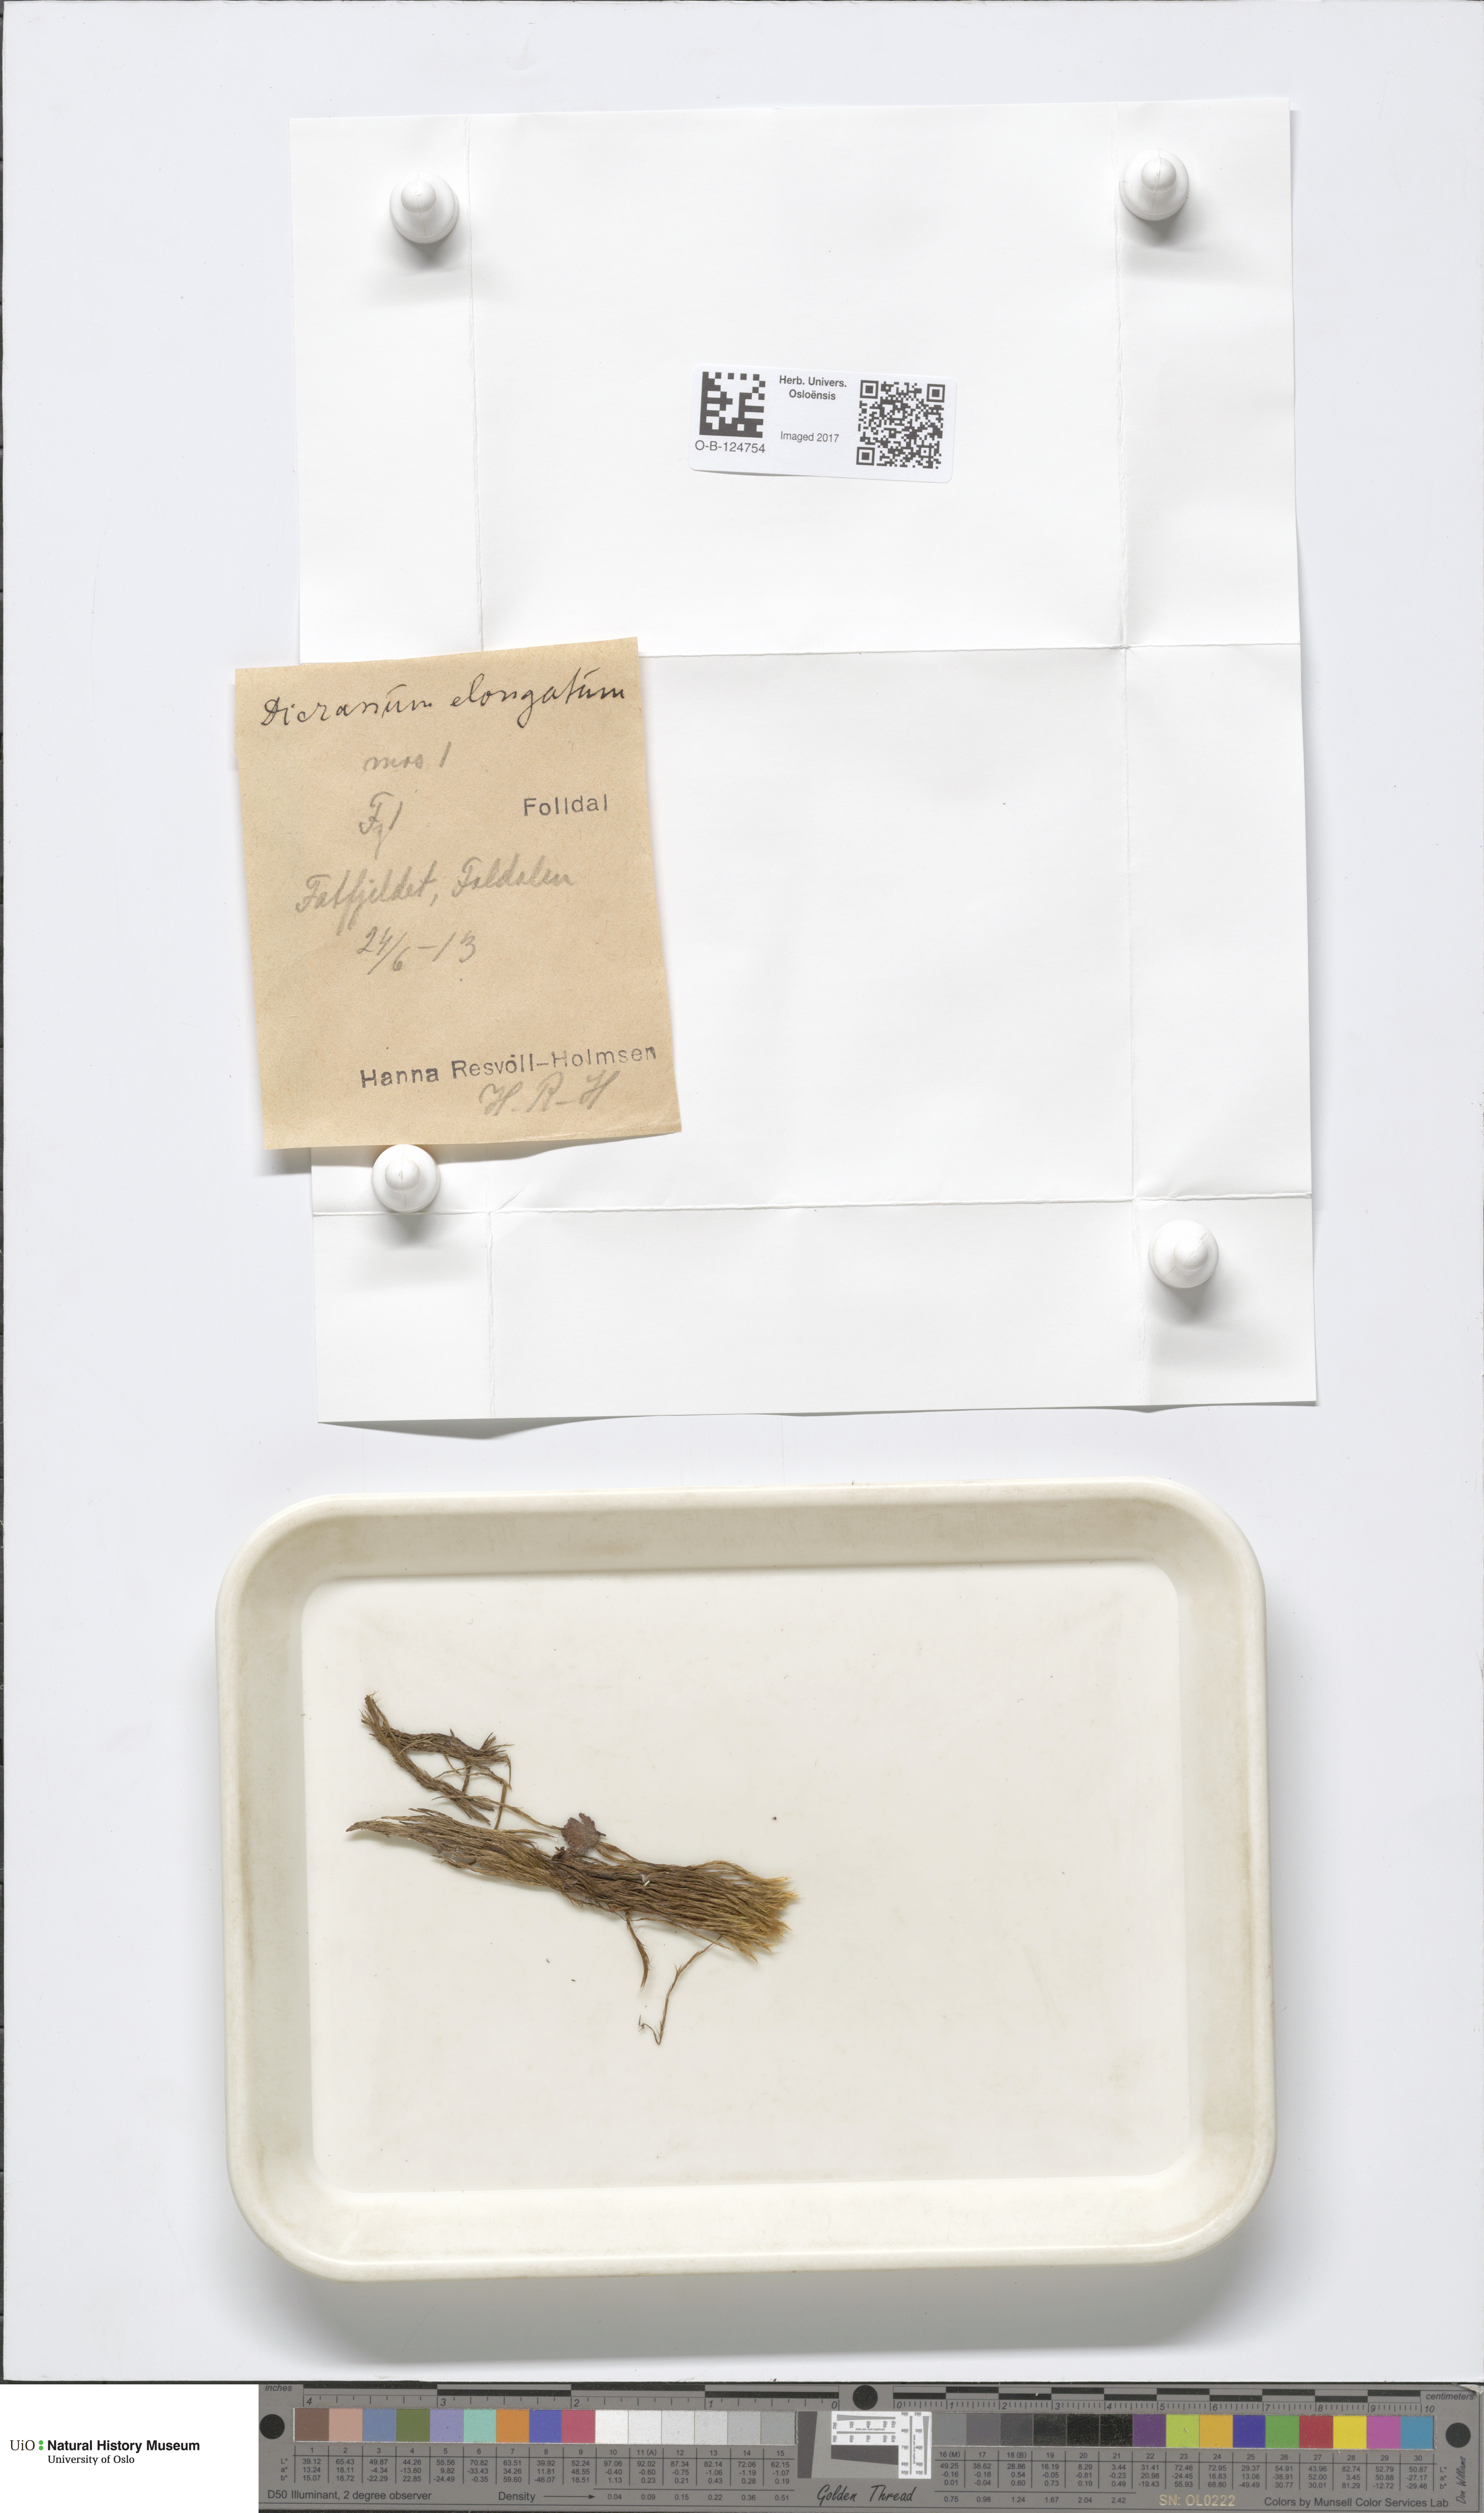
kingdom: Plantae
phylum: Bryophyta
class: Bryopsida
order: Dicranales
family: Dicranaceae
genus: Dicranum
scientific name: Dicranum elongatum
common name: Long-forked broom moss
